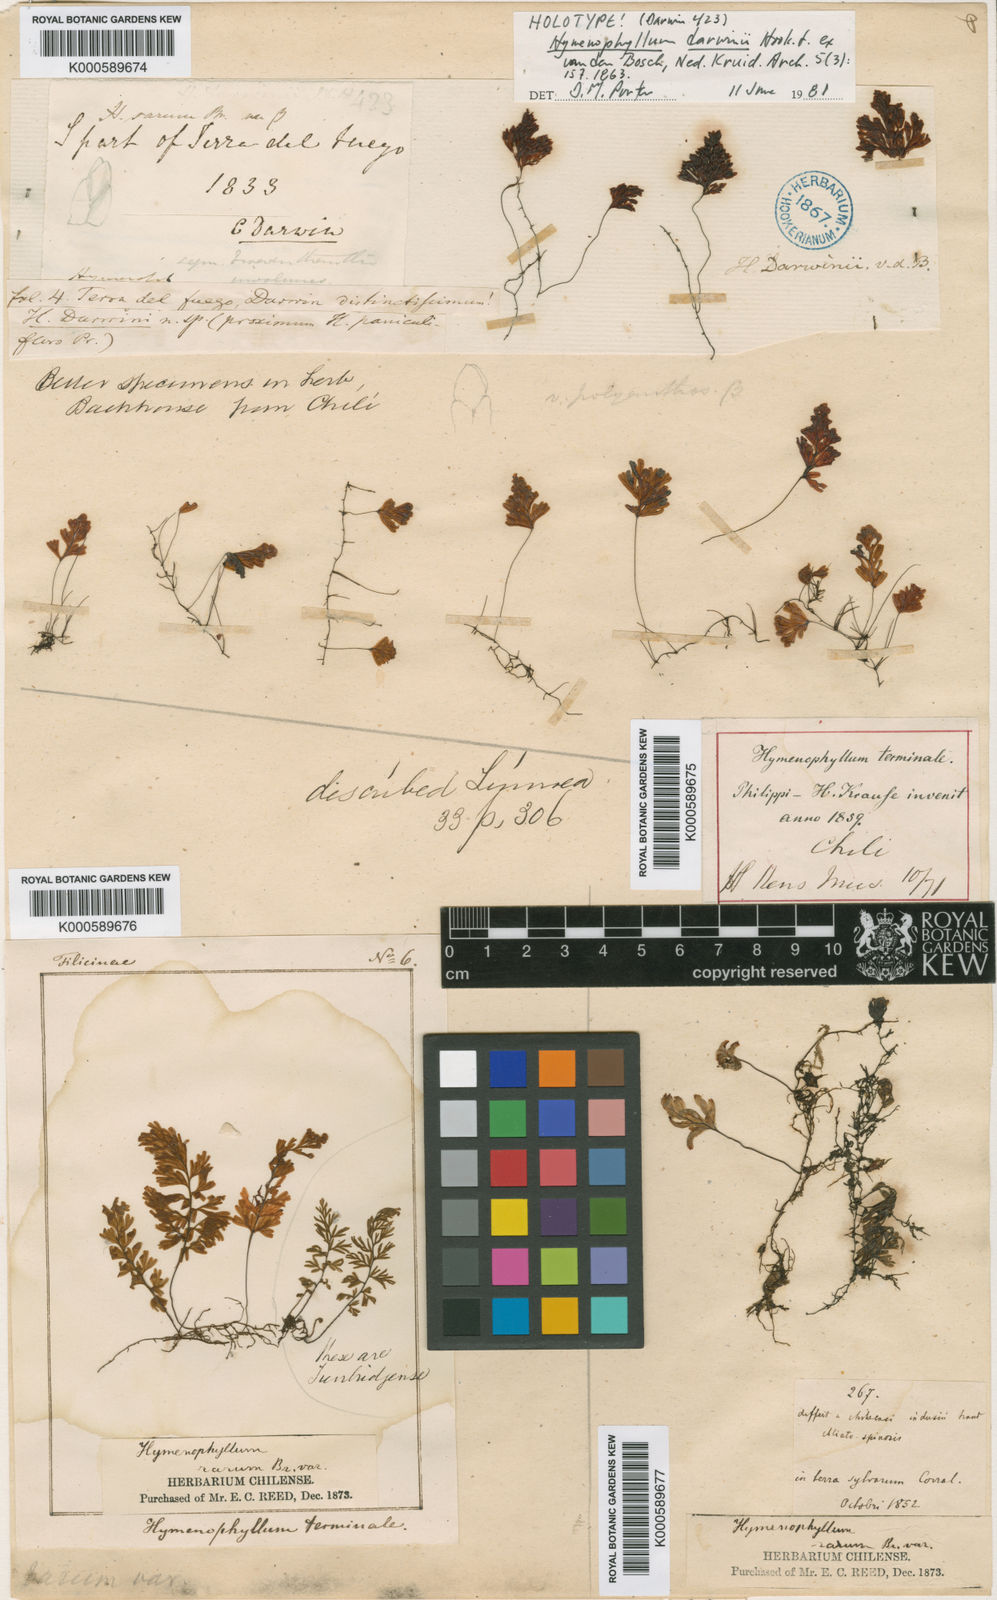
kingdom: Plantae
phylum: Tracheophyta
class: Polypodiopsida
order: Hymenophyllales
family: Hymenophyllaceae
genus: Hymenophyllum
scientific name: Hymenophyllum dentatum
